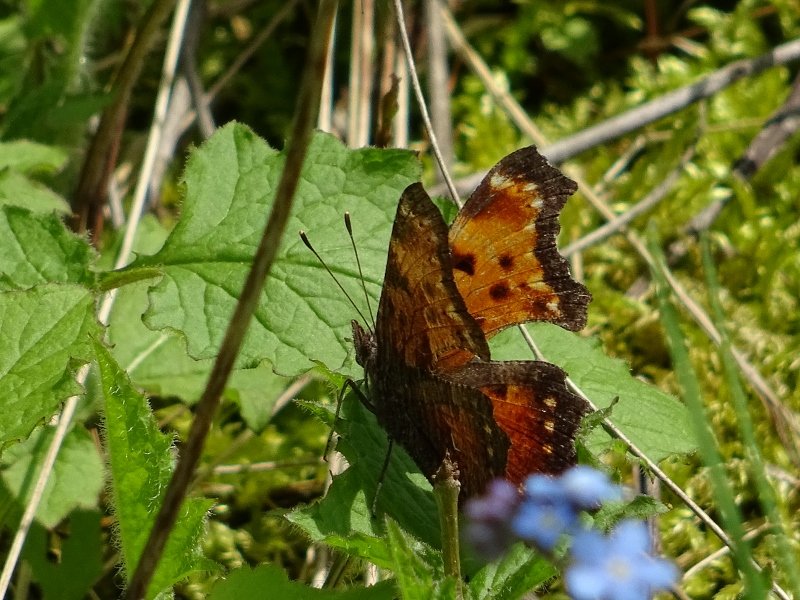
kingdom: Animalia
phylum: Arthropoda
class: Insecta
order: Lepidoptera
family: Nymphalidae
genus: Polygonia
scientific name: Polygonia progne
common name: Gray Comma
